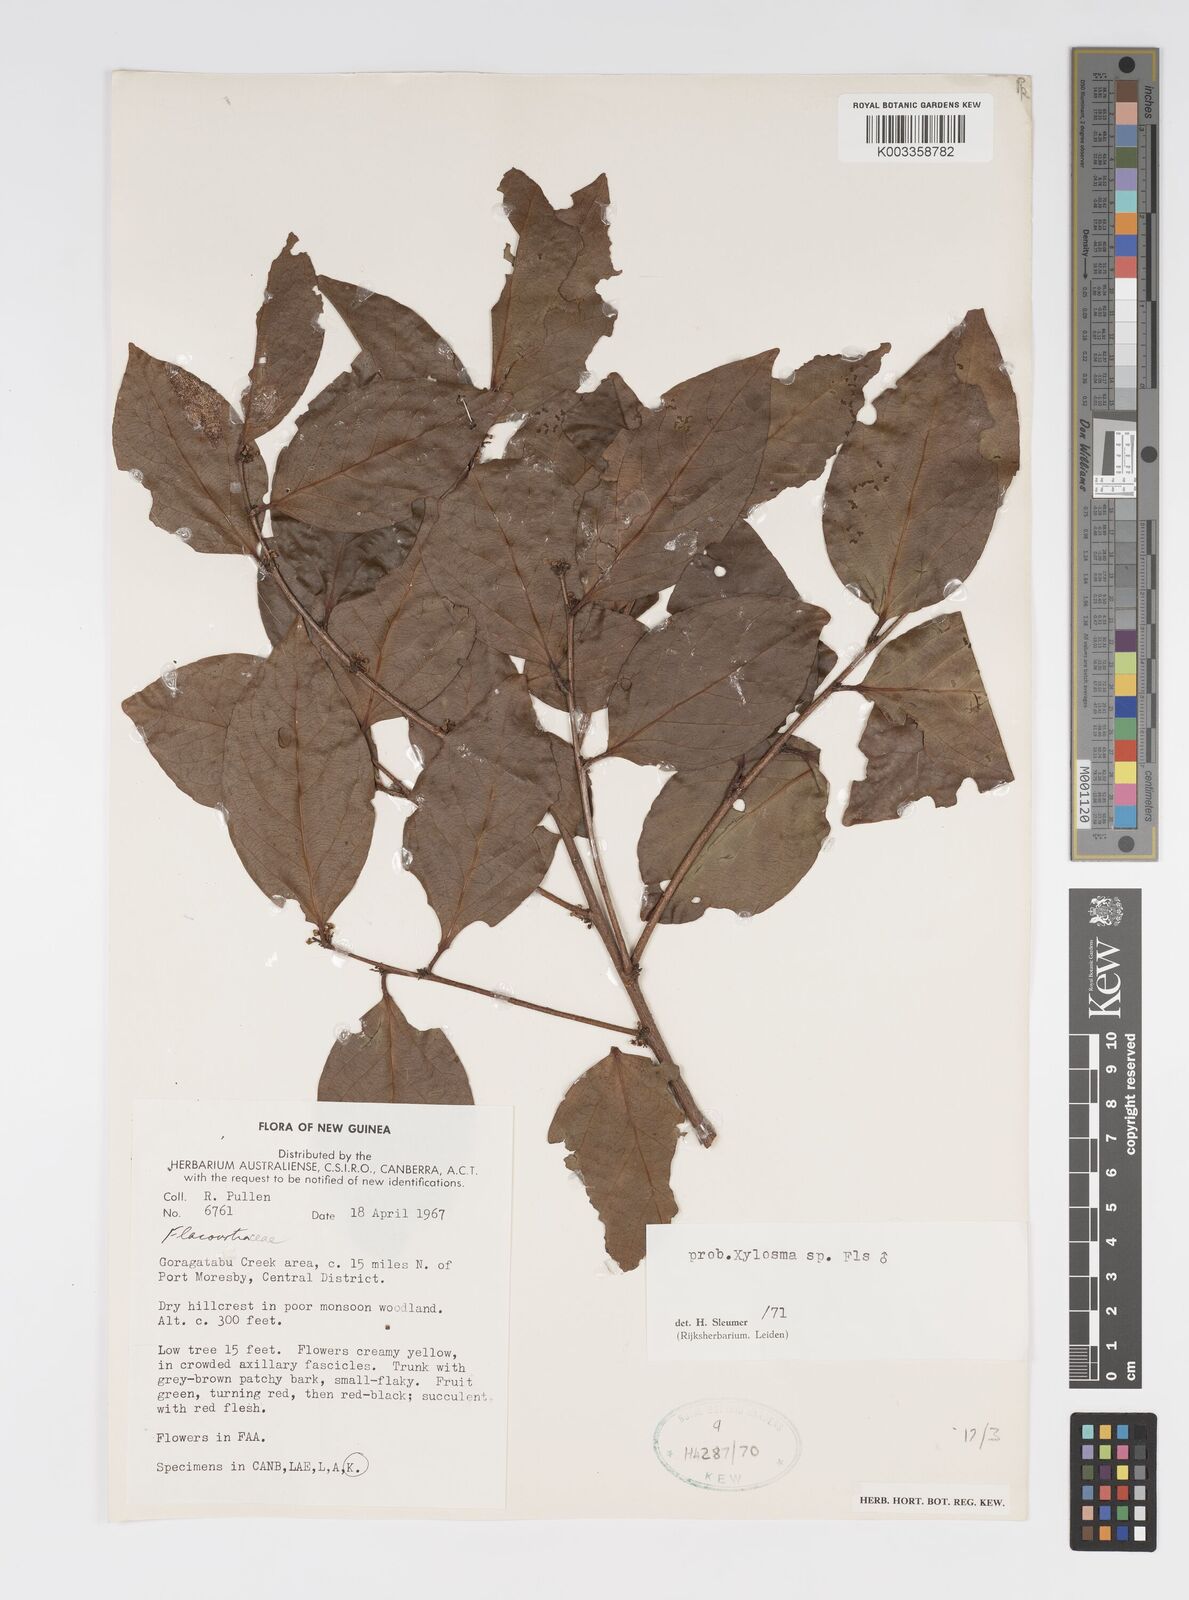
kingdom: Plantae
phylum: Tracheophyta
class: Magnoliopsida
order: Malpighiales
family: Salicaceae
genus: Xylosma
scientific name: Xylosma
